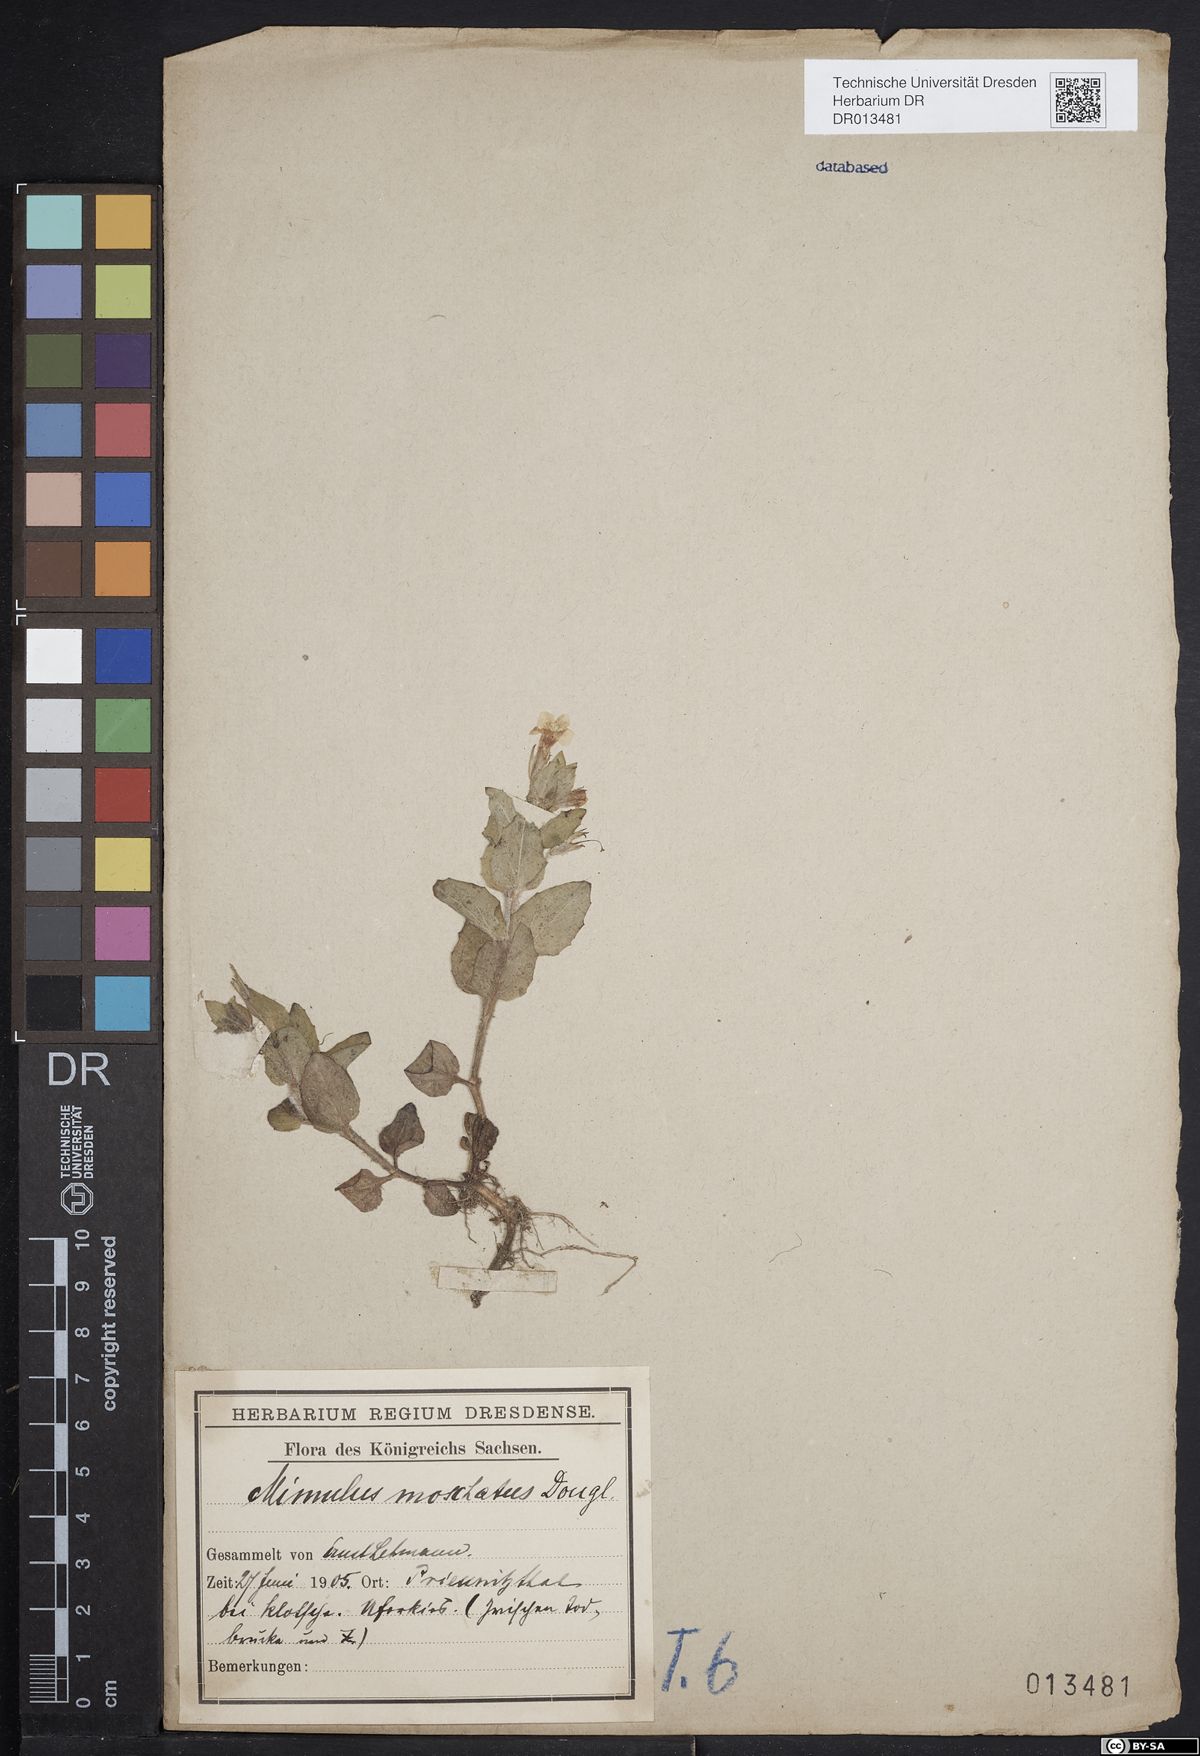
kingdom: Plantae
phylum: Tracheophyta
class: Magnoliopsida
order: Lamiales
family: Phrymaceae
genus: Erythranthe
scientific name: Erythranthe moschata
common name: Muskflower
